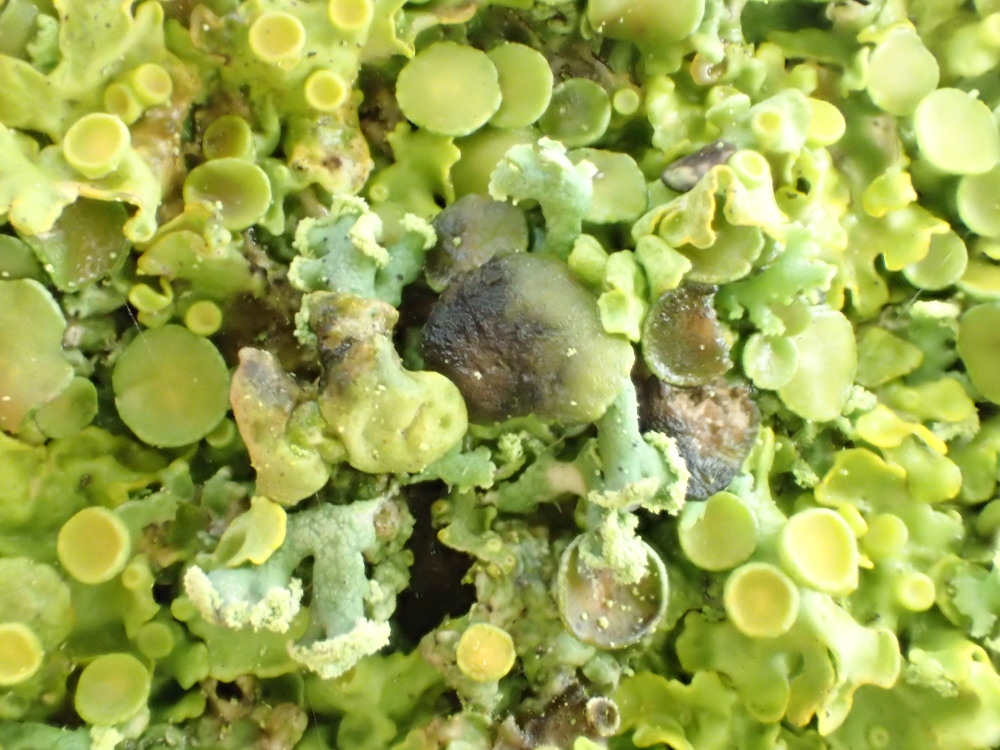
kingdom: Fungi
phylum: Ascomycota
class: Dothideomycetes
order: Mycosphaerellales
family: Teratosphaeriaceae
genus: Xanthoriicola
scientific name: Xanthoriicola physciae
